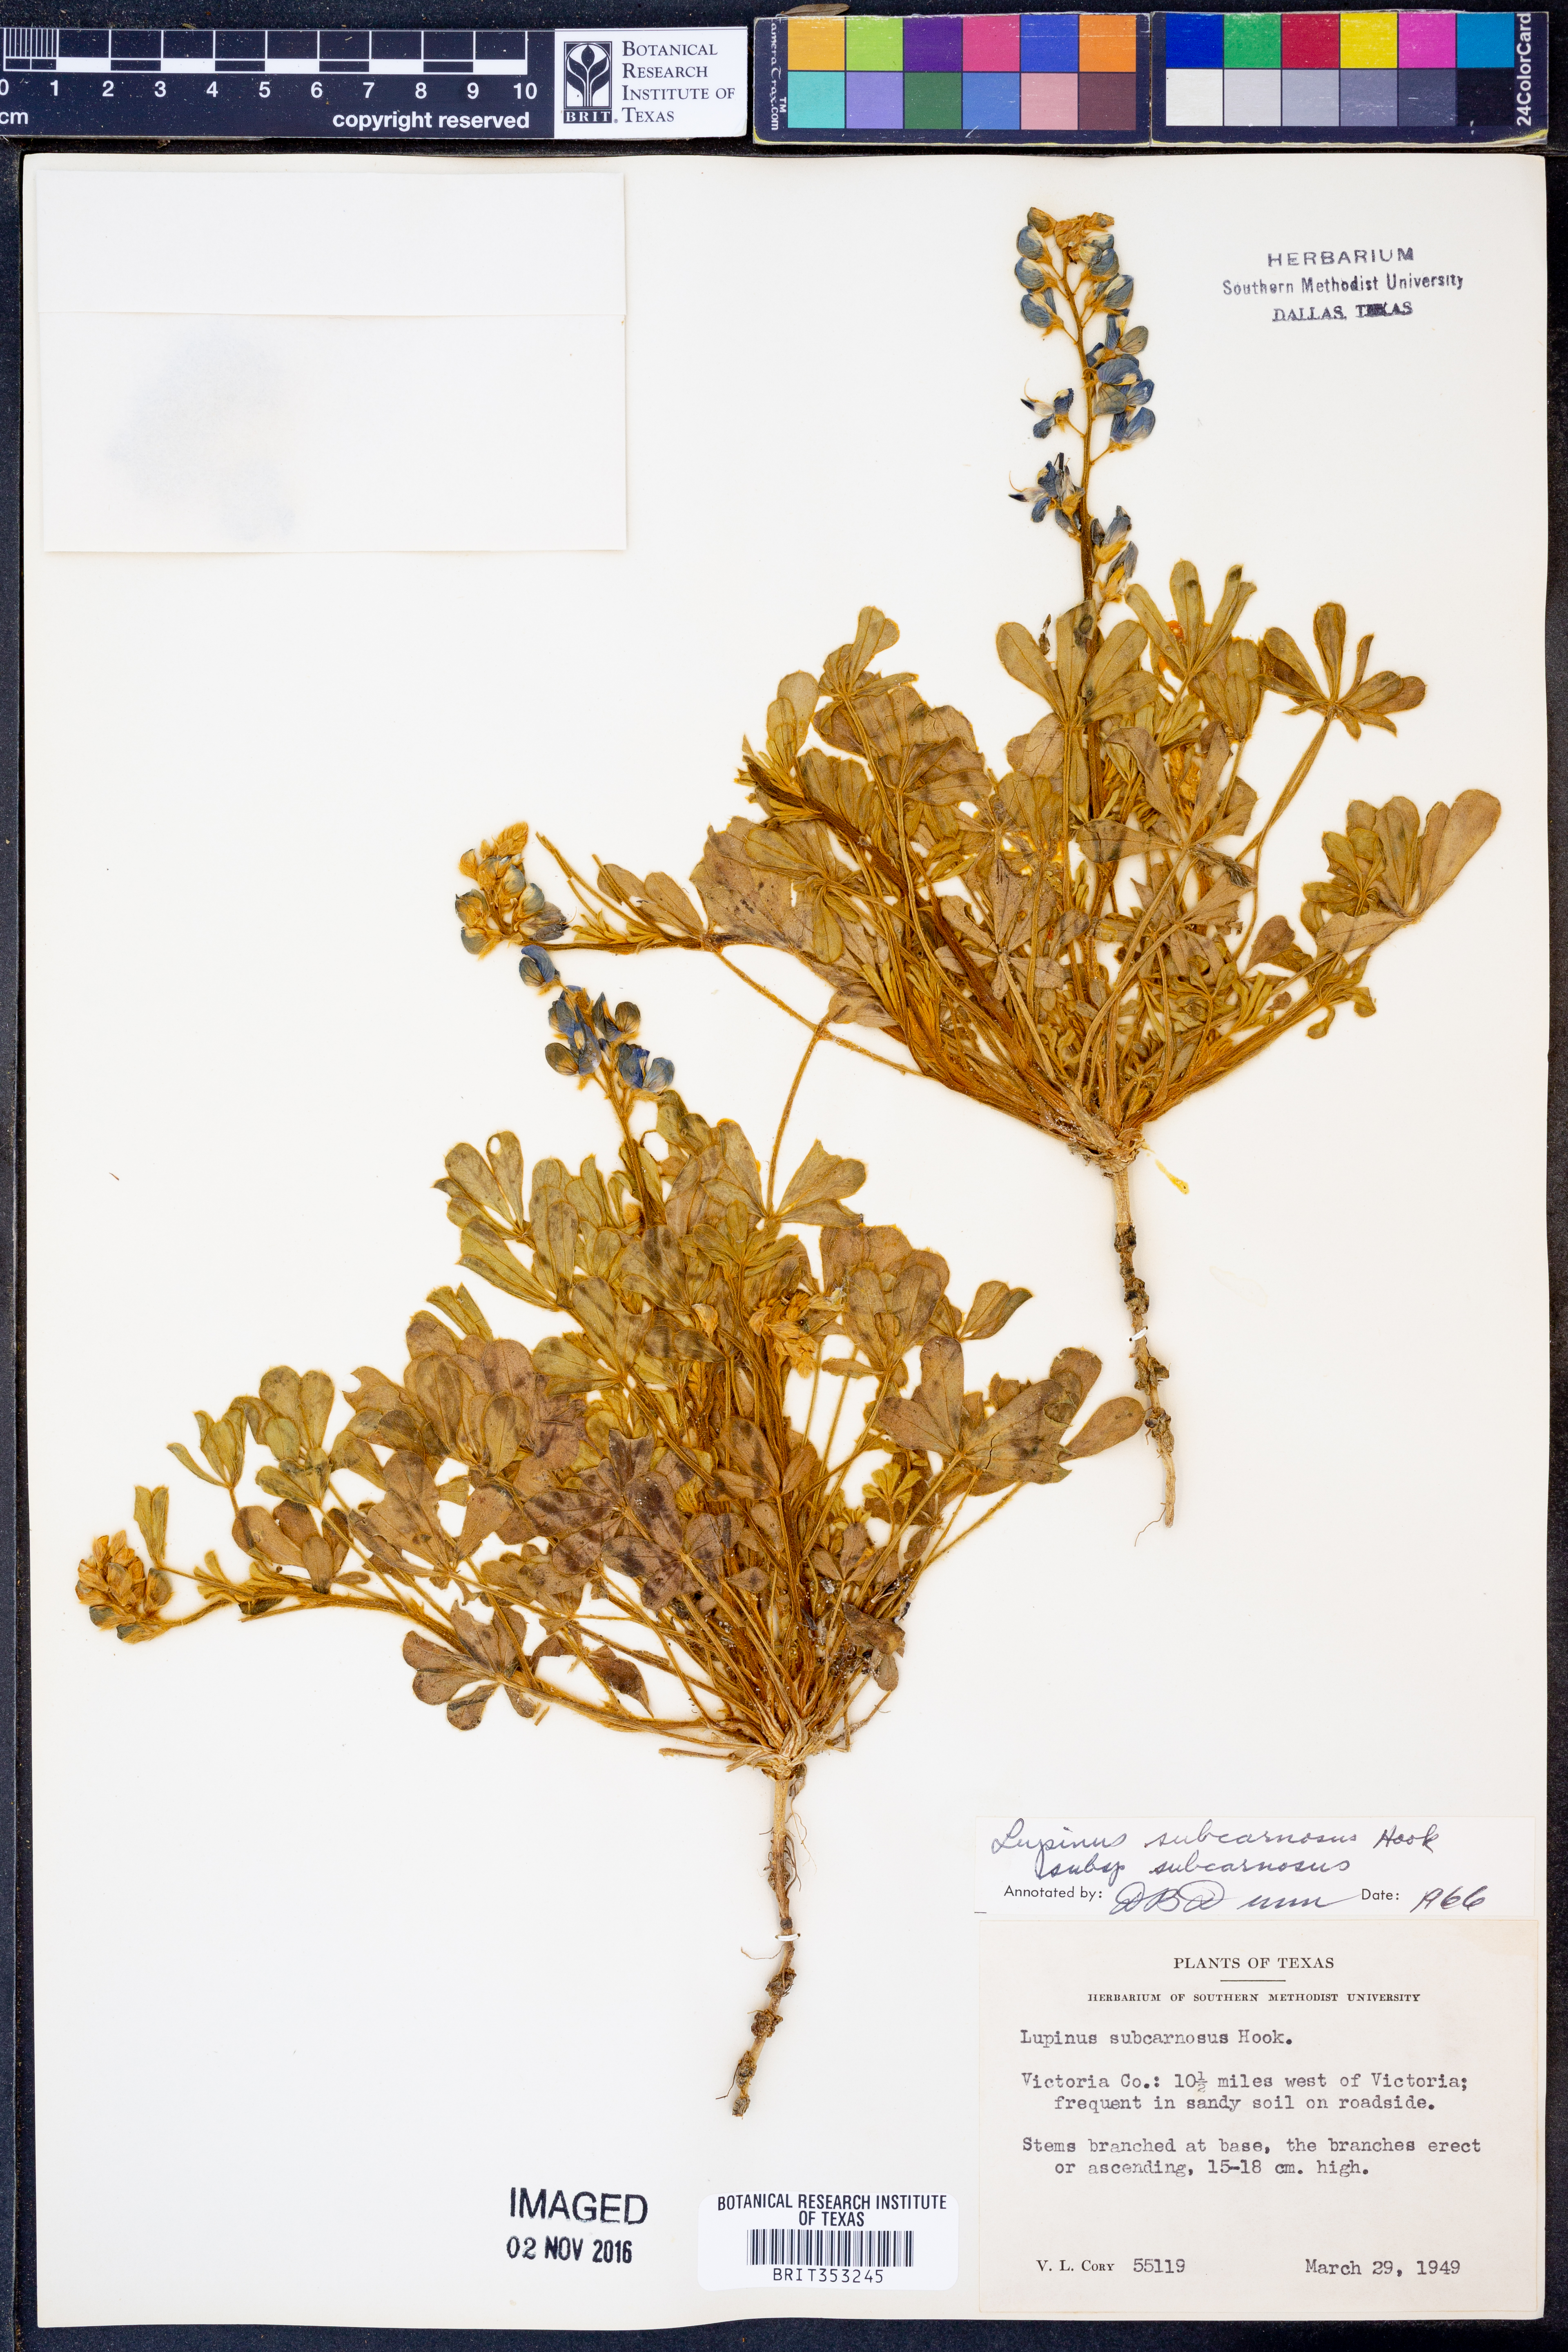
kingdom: Plantae
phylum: Tracheophyta
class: Magnoliopsida
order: Fabales
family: Fabaceae
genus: Lupinus
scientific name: Lupinus subcarnosus
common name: Texas bluebonnet
